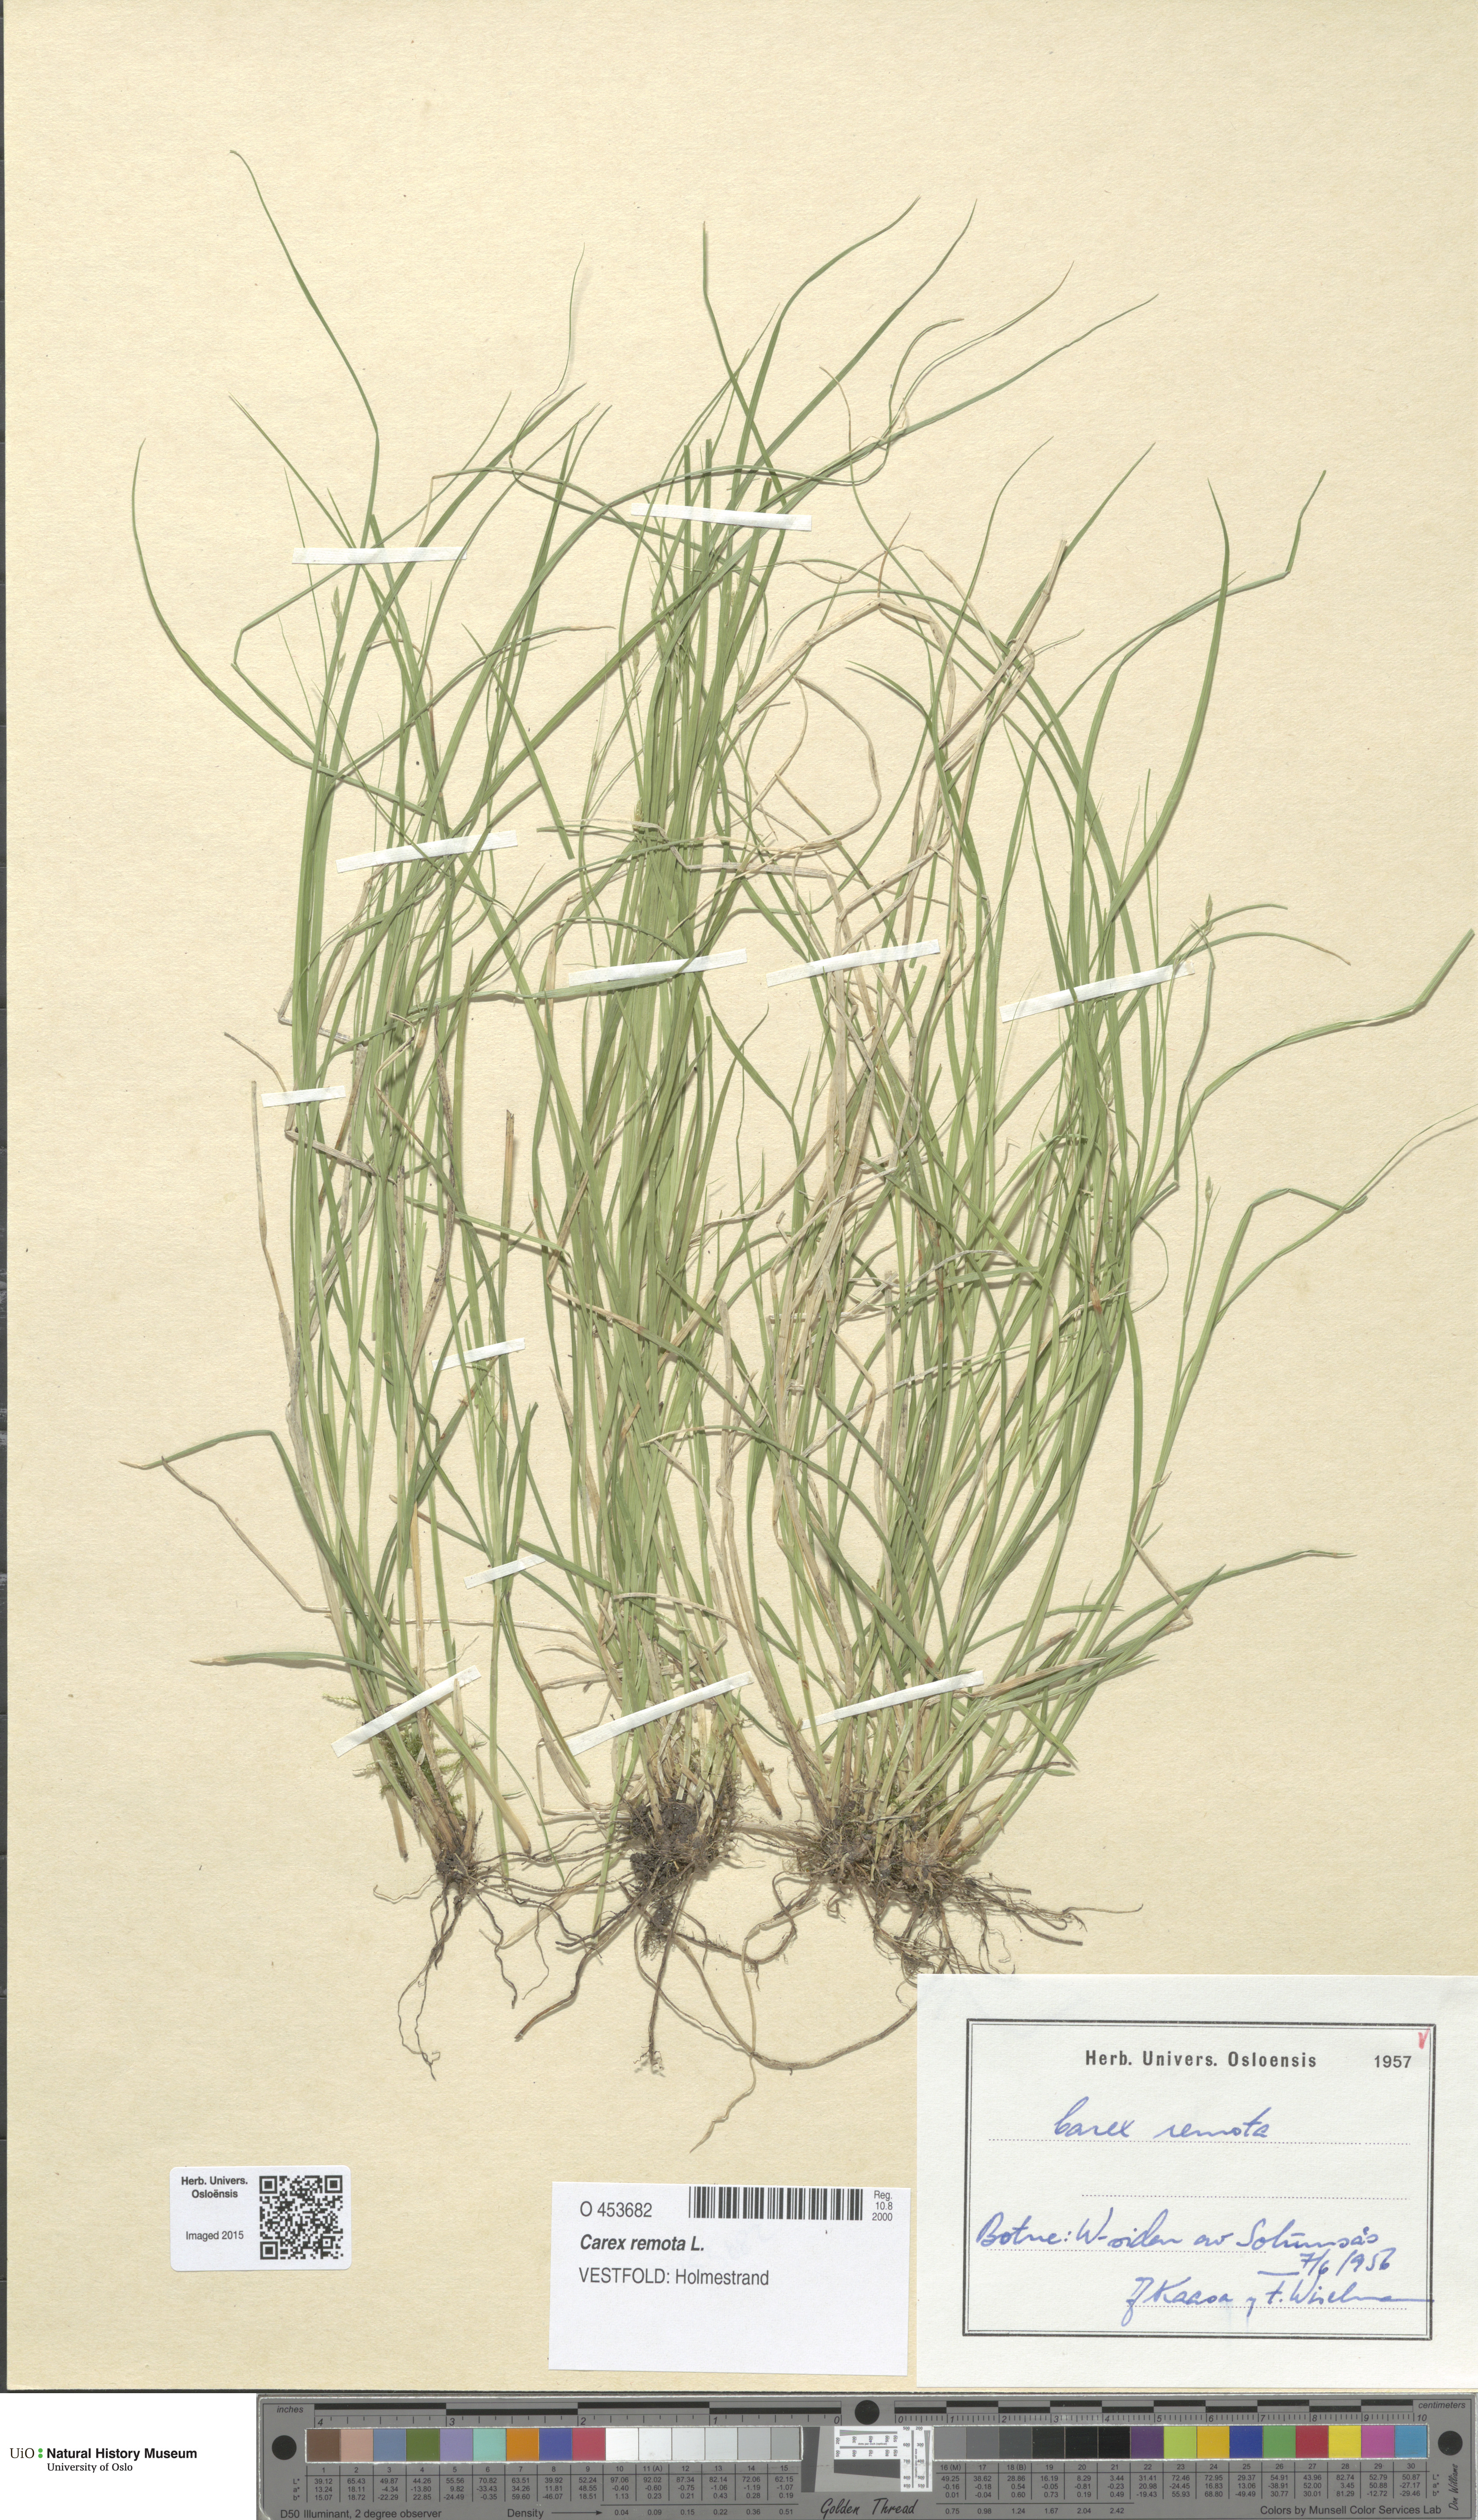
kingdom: Plantae
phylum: Tracheophyta
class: Liliopsida
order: Poales
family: Cyperaceae
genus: Carex
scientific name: Carex remota
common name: Remote sedge
